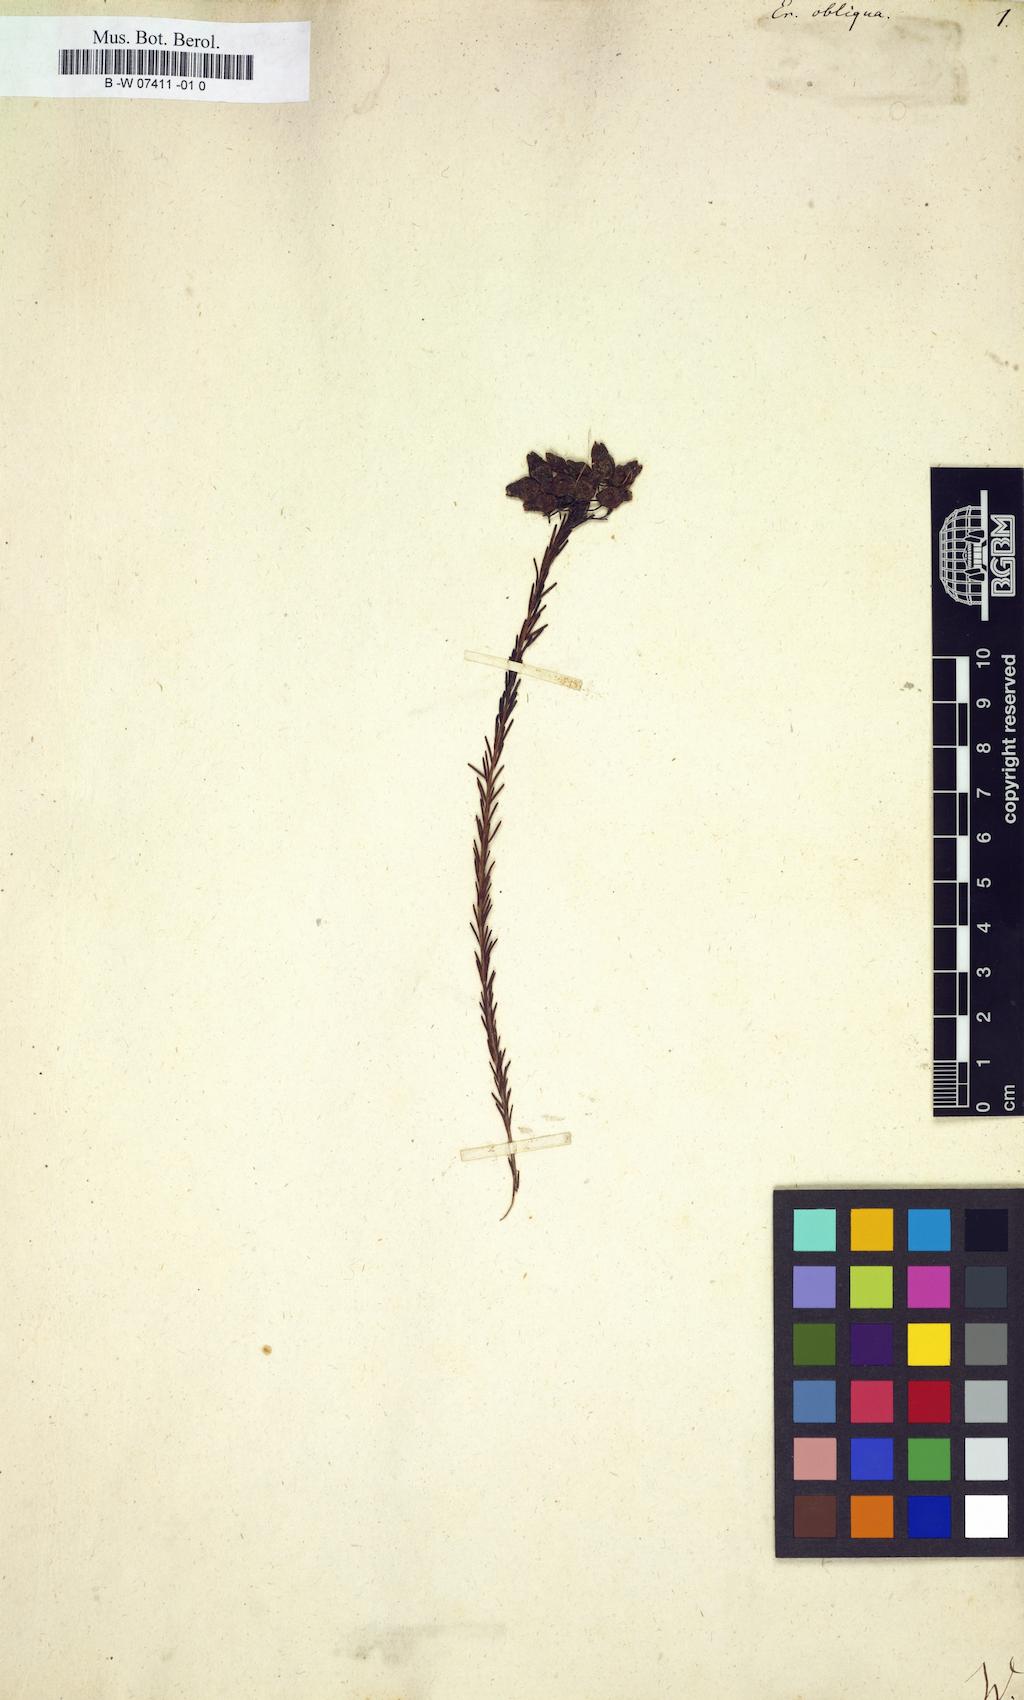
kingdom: Plantae
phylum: Tracheophyta
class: Magnoliopsida
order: Ericales
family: Ericaceae
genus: Erica
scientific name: Erica obliqua
